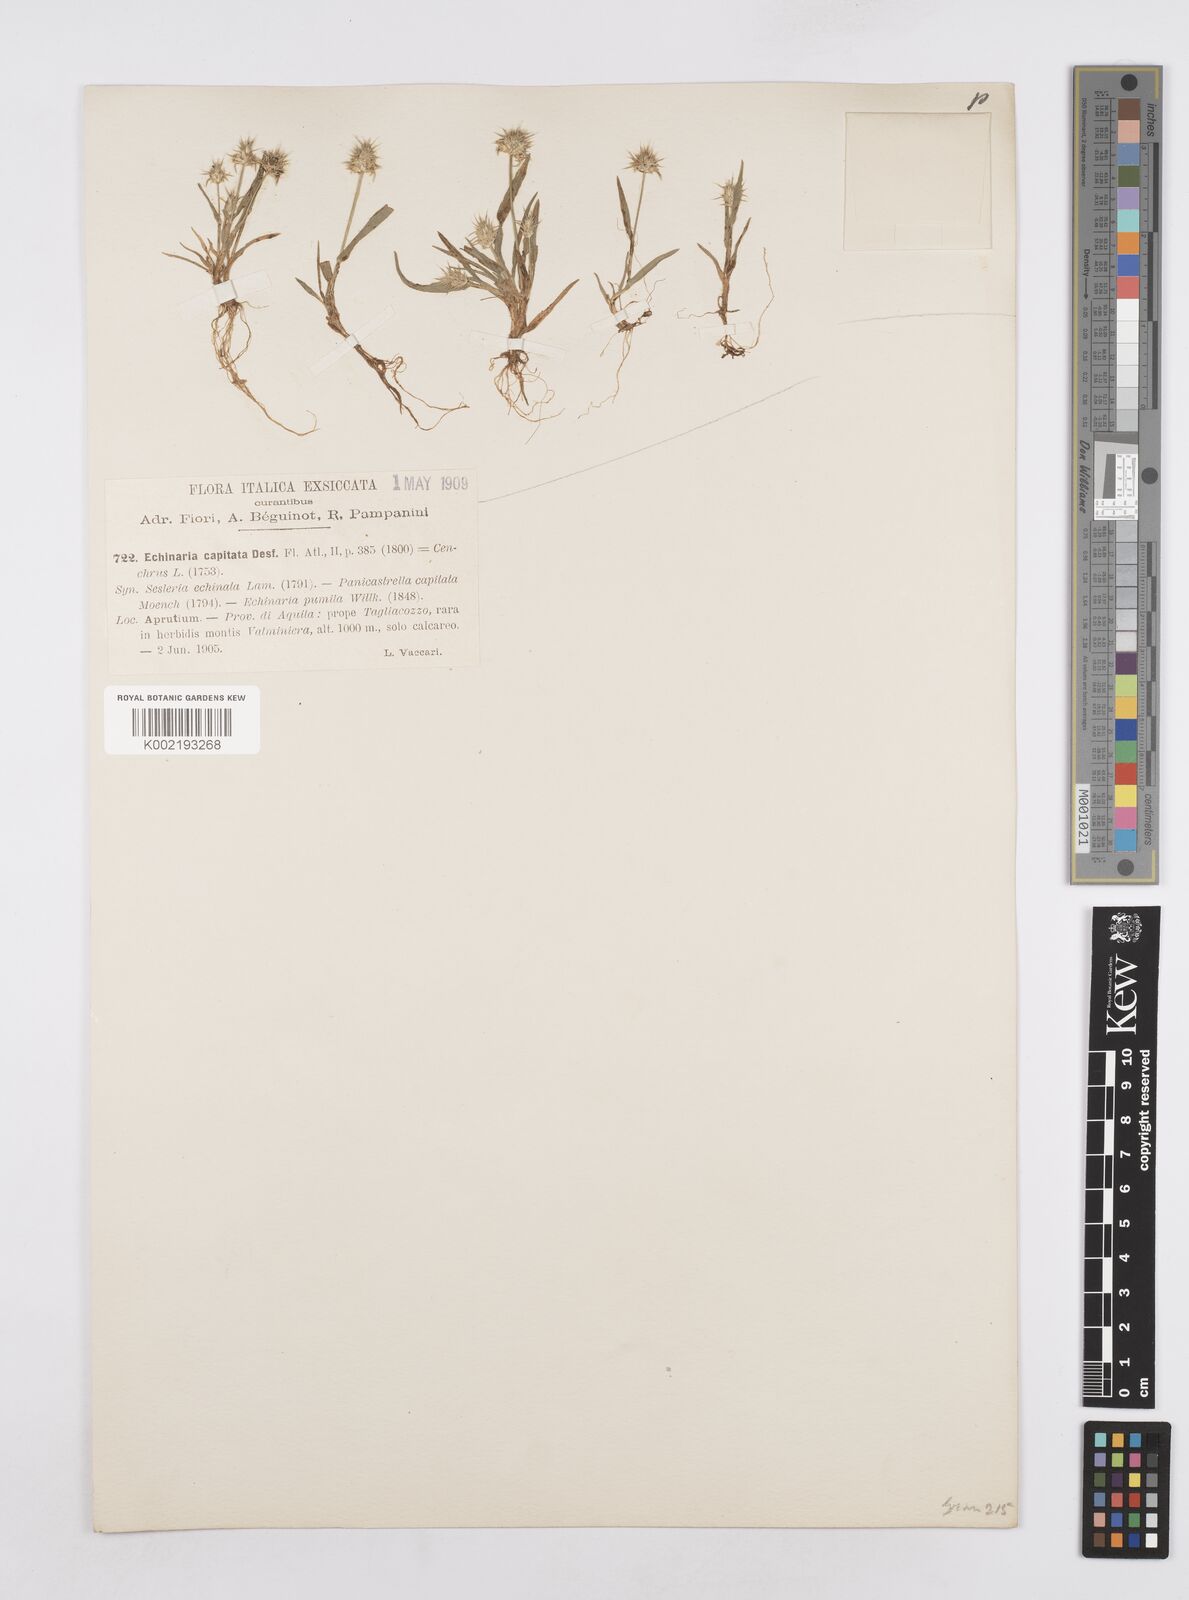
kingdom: Plantae
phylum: Tracheophyta
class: Liliopsida
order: Poales
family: Poaceae
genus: Echinaria
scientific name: Echinaria capitata
